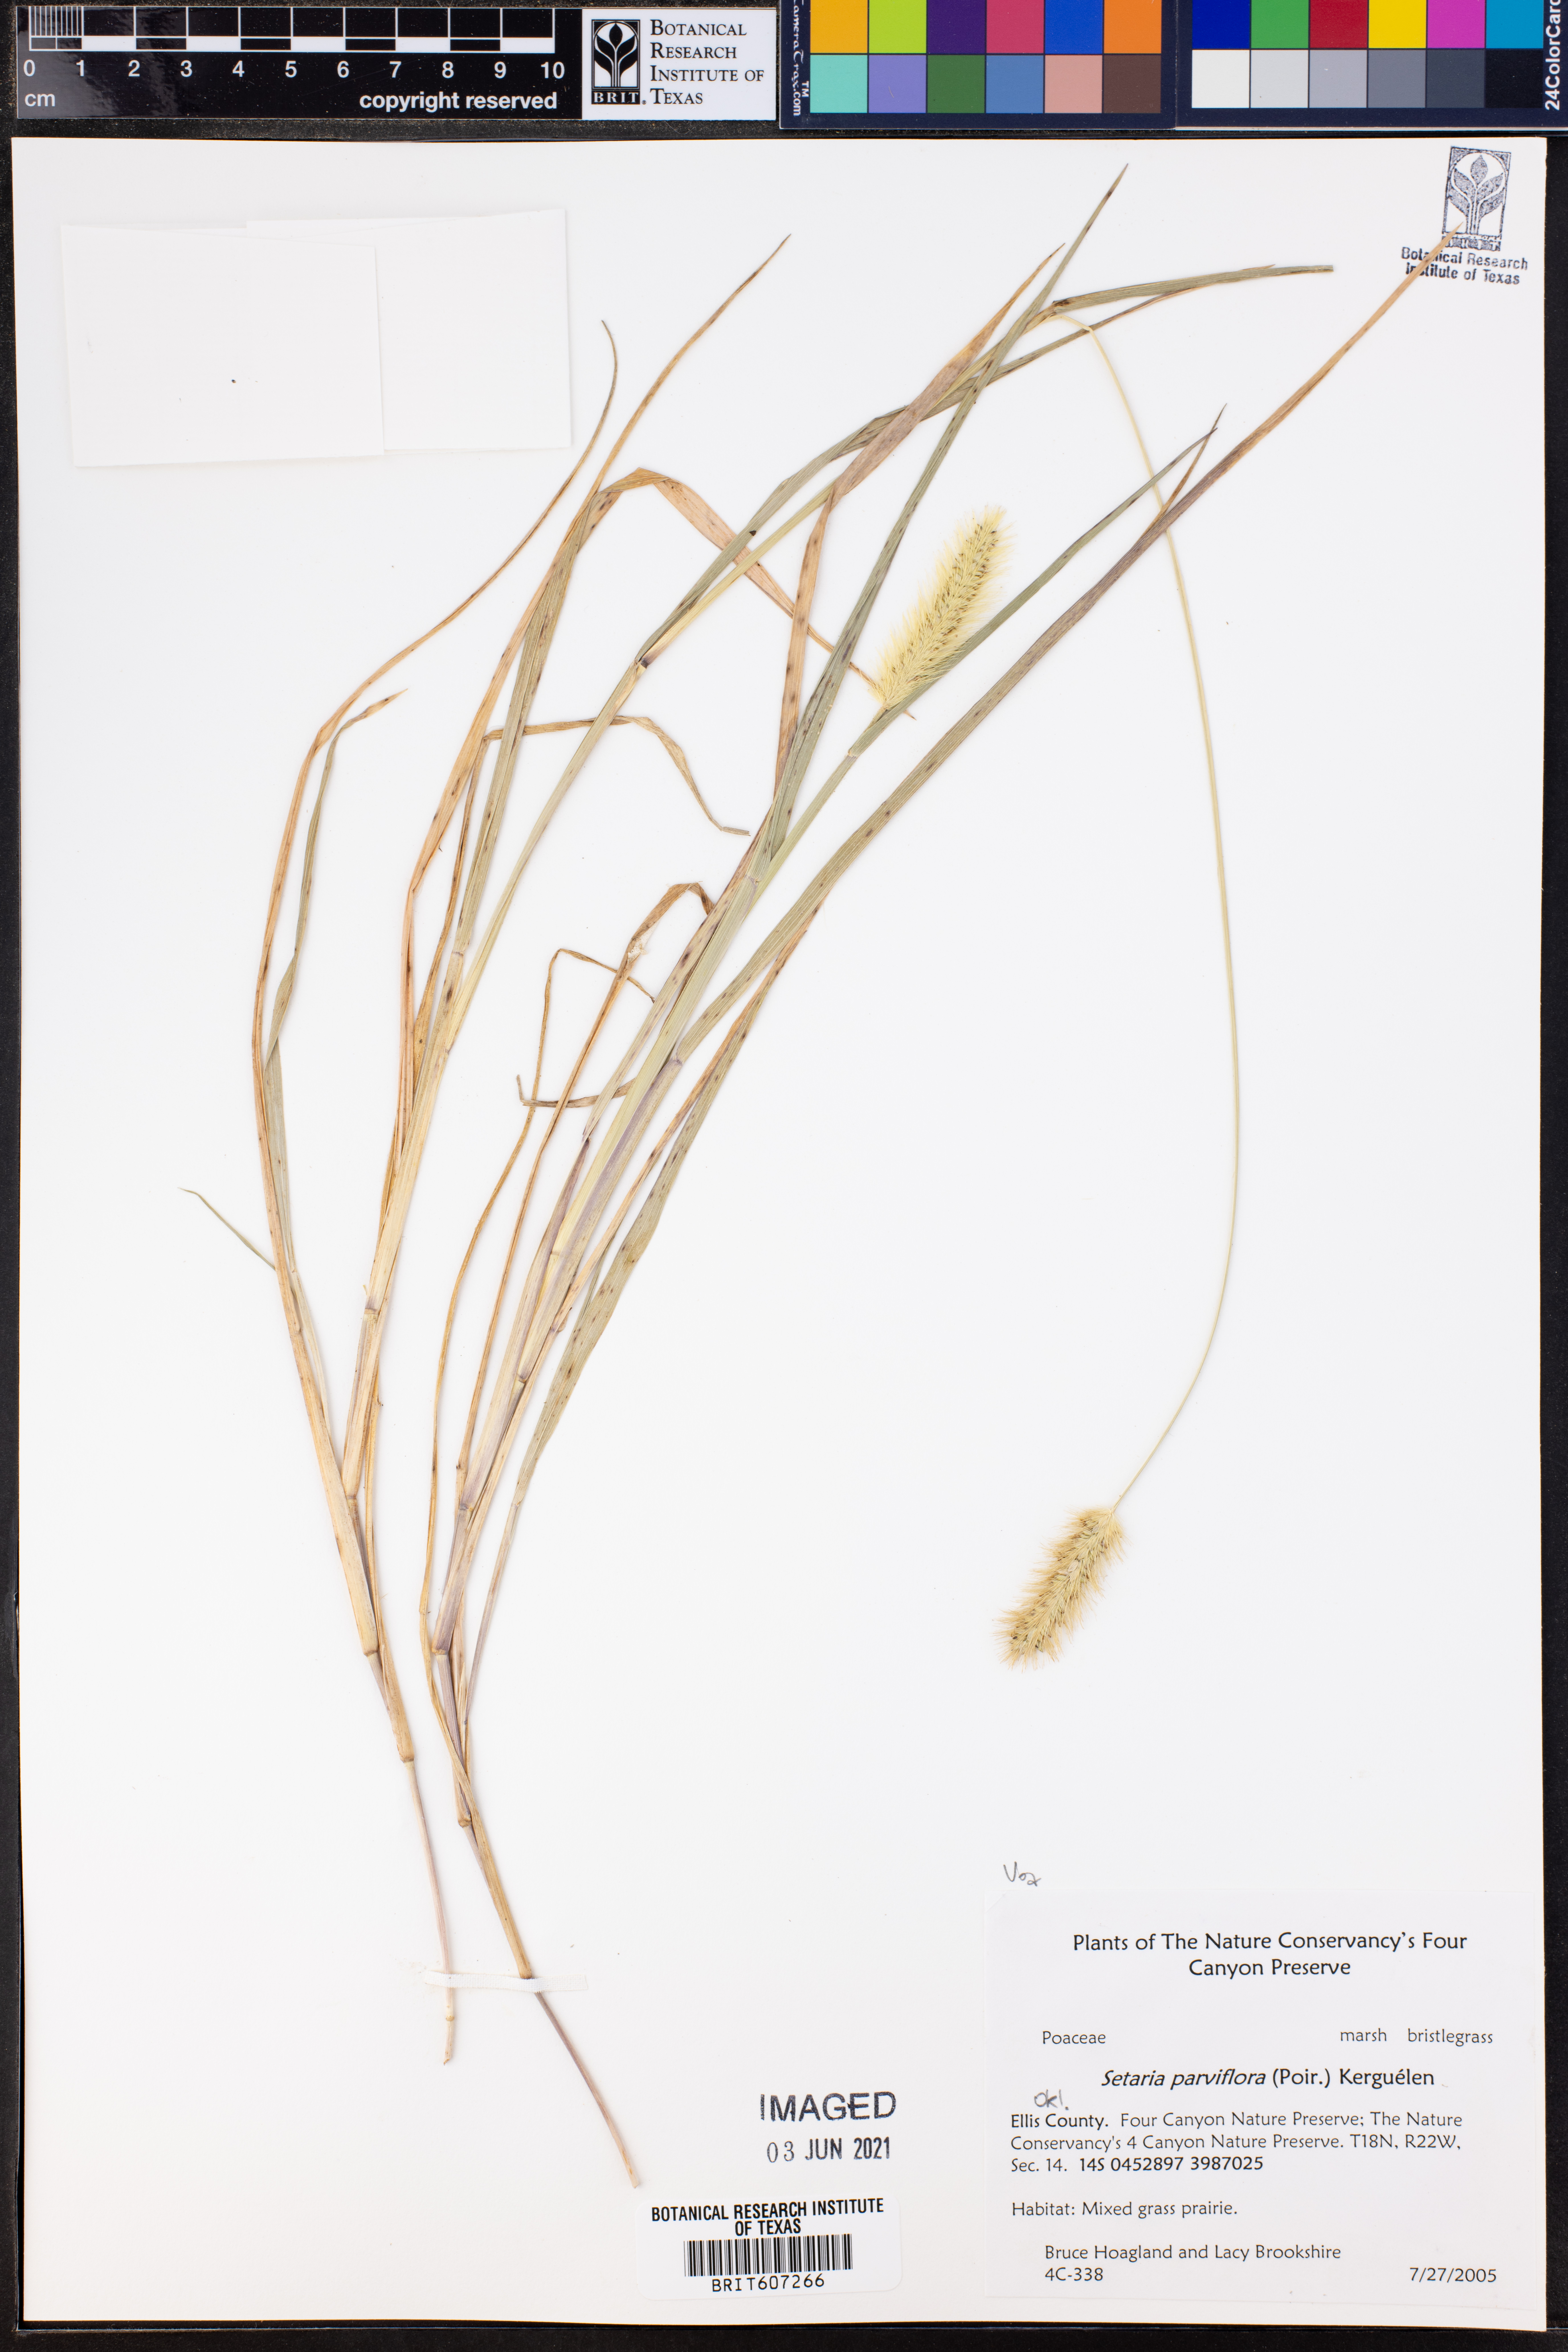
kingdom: Plantae
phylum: Tracheophyta
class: Liliopsida
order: Poales
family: Poaceae
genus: Setaria
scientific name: Setaria parviflora
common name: Knotroot bristle-grass
